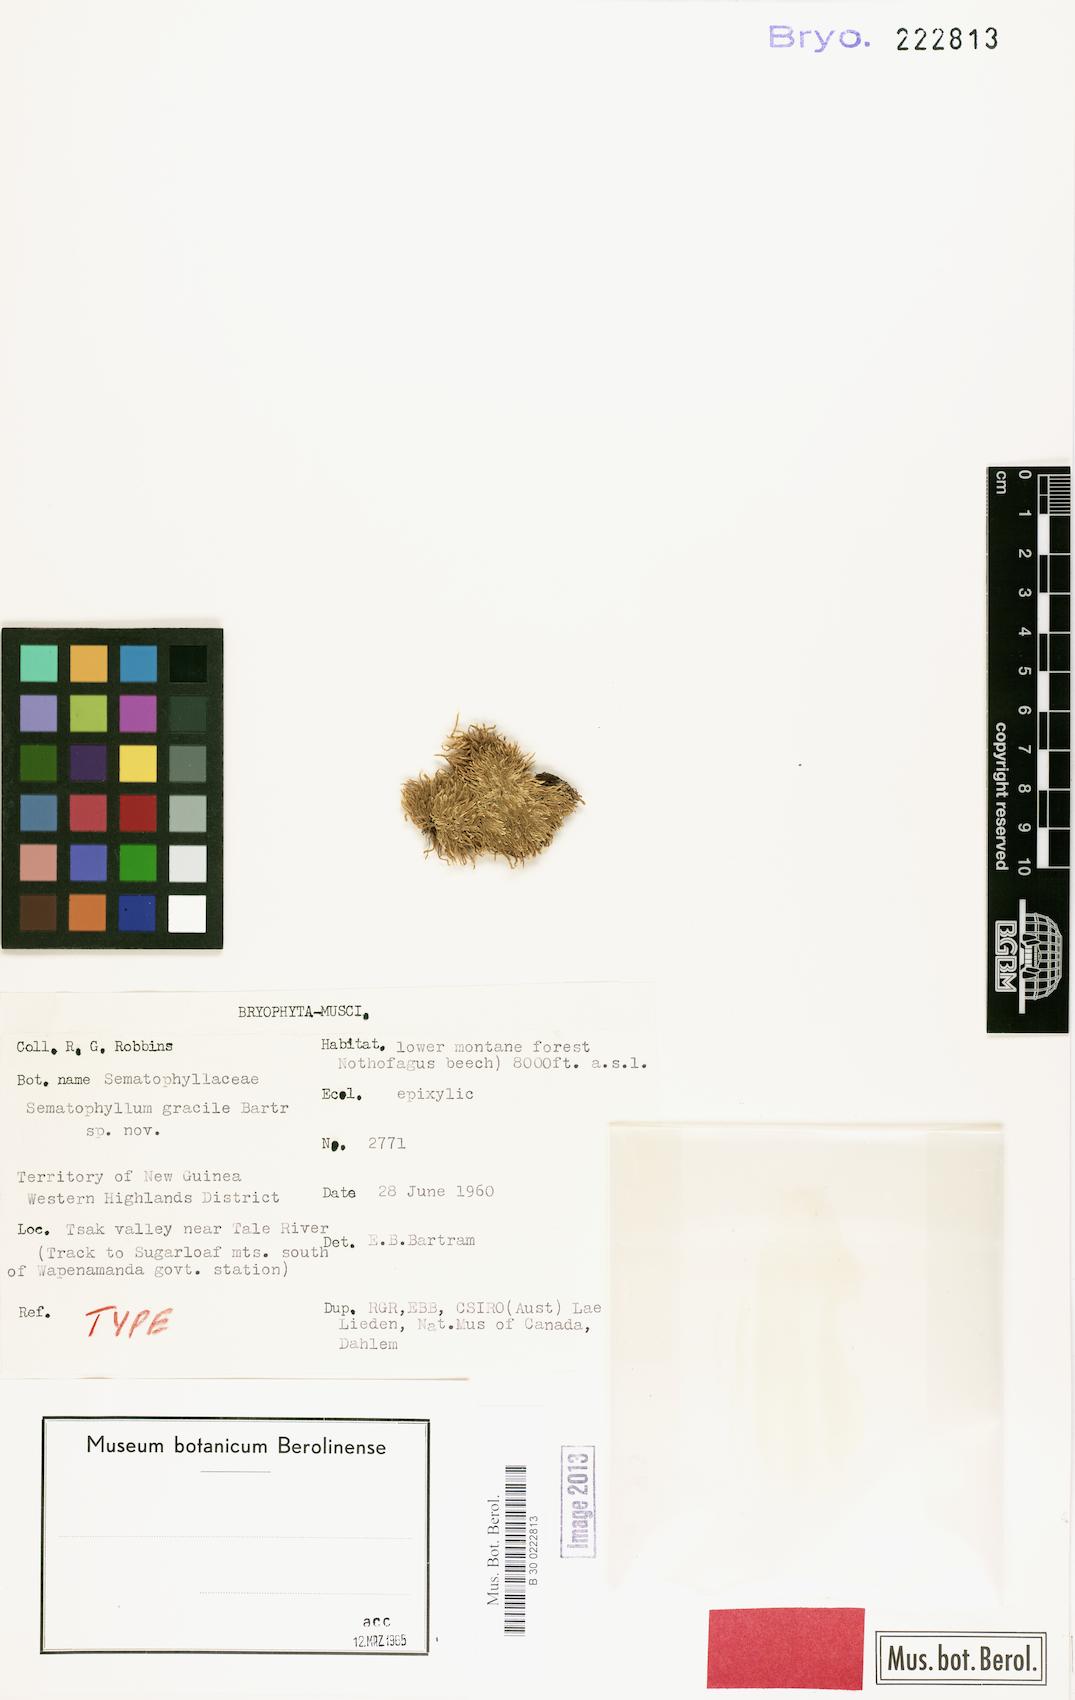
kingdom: Plantae
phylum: Bryophyta
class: Bryopsida
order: Hypnales
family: Sematophyllaceae
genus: Sematophyllum
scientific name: Sematophyllum subhumile
